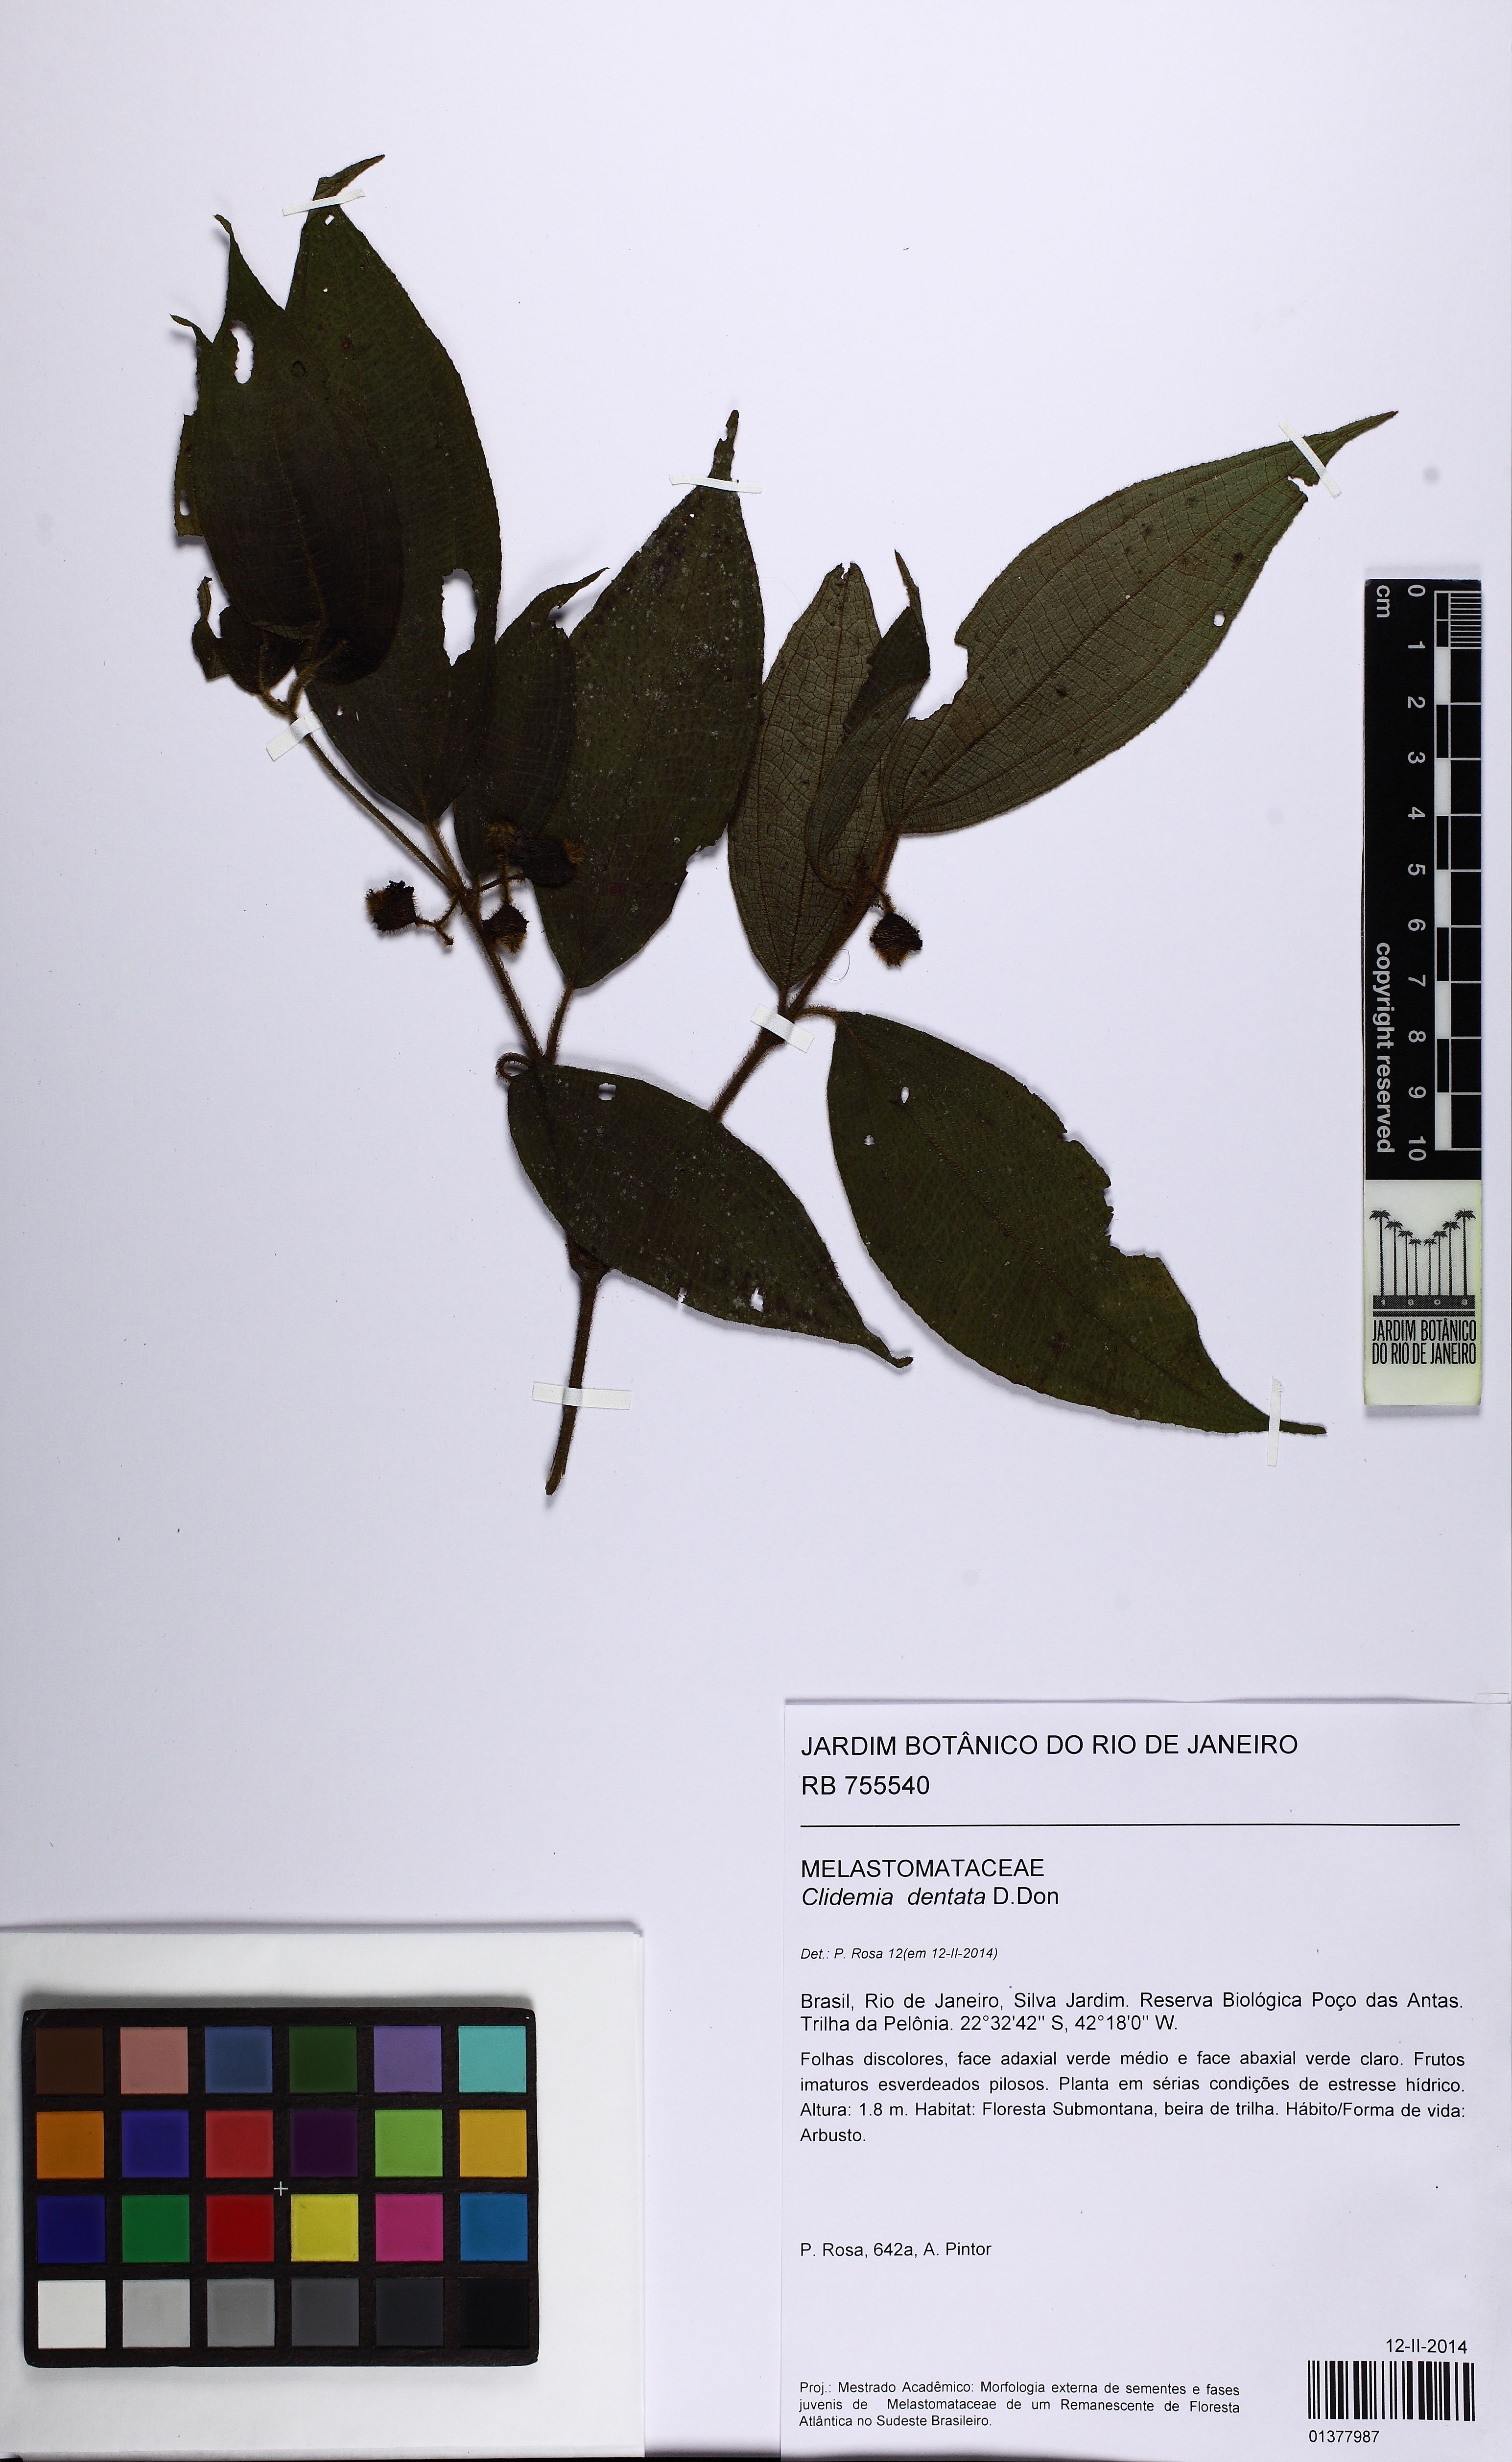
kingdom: Plantae
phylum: Tracheophyta
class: Magnoliopsida
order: Myrtales
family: Melastomataceae
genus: Miconia
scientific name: Miconia dentata
